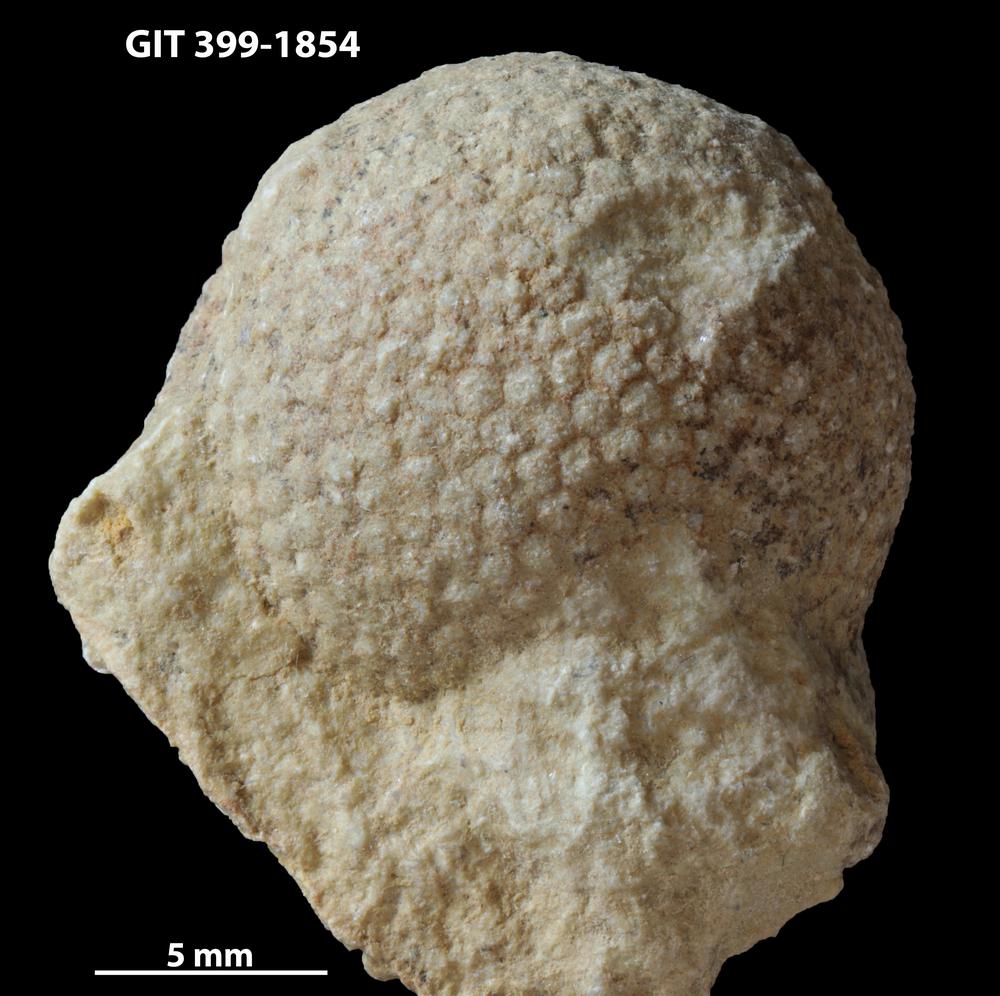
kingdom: Plantae
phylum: Chlorophyta
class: Ulvophyceae
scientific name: Ulvophyceae
